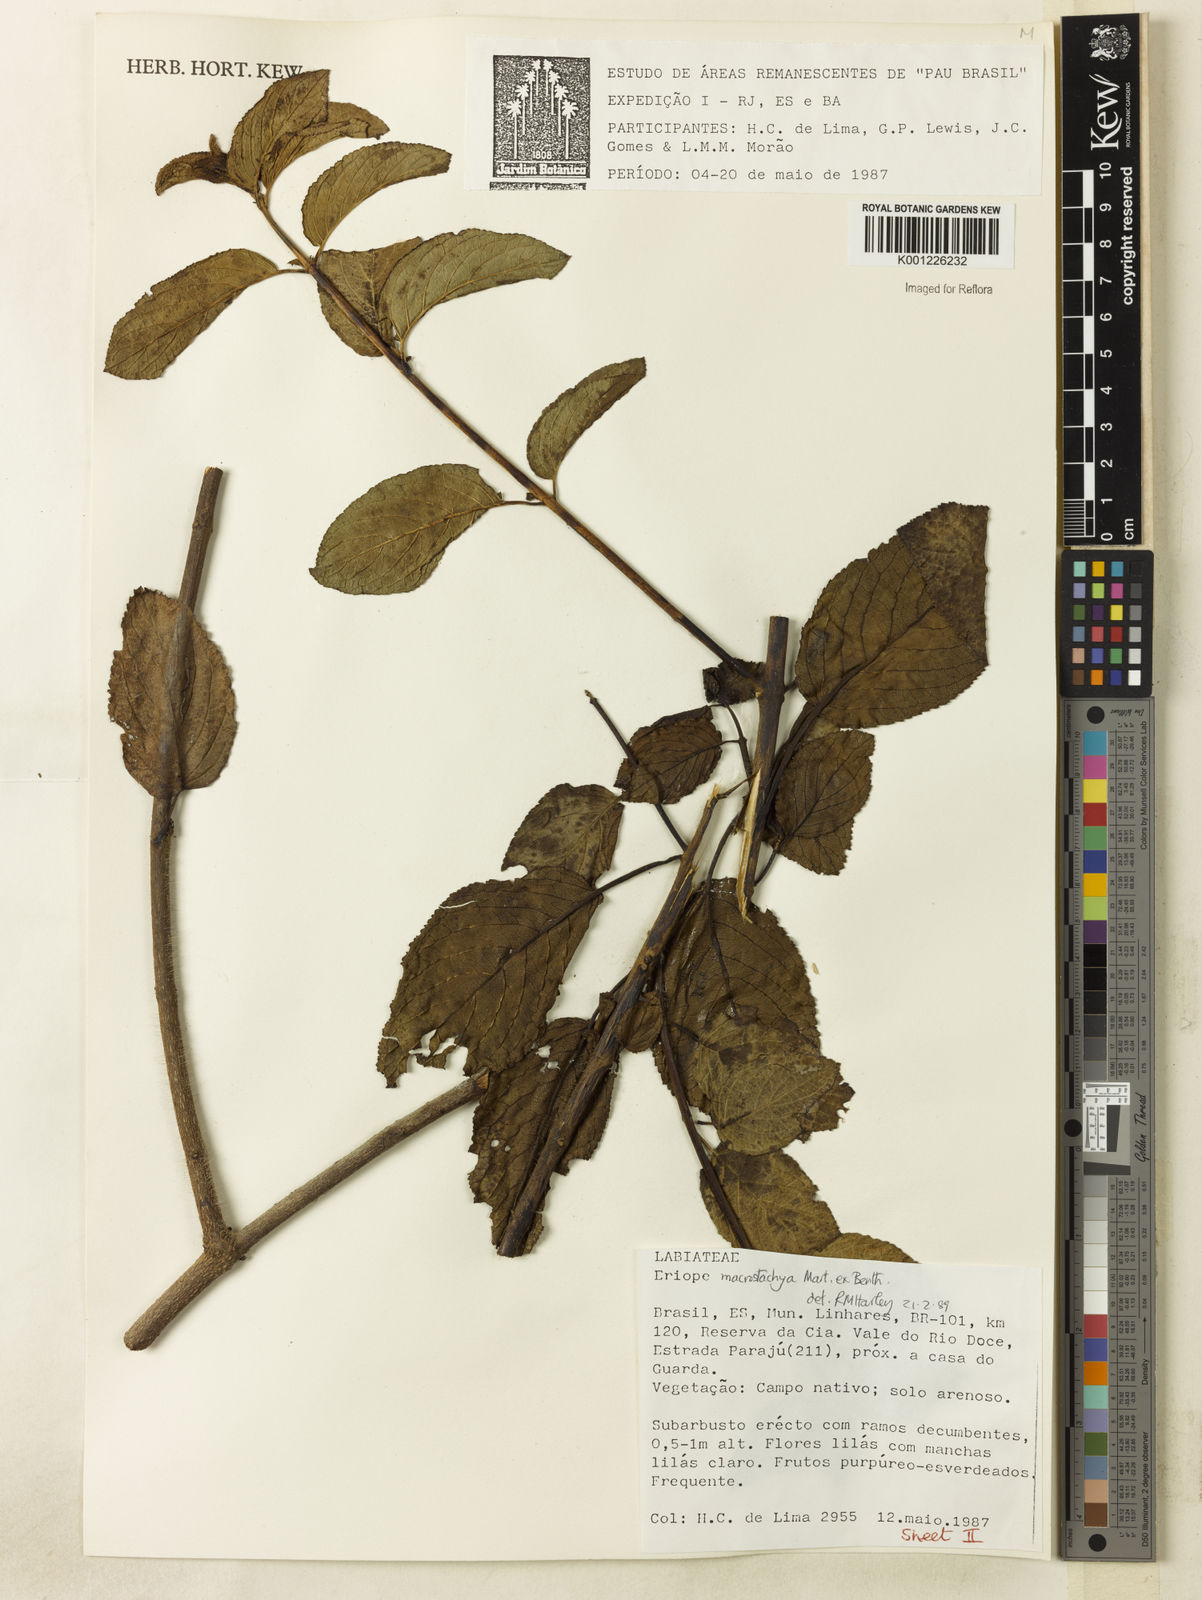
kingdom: Plantae
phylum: Tracheophyta
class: Magnoliopsida
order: Lamiales
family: Lamiaceae
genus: Eriope
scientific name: Eriope macrostachya
